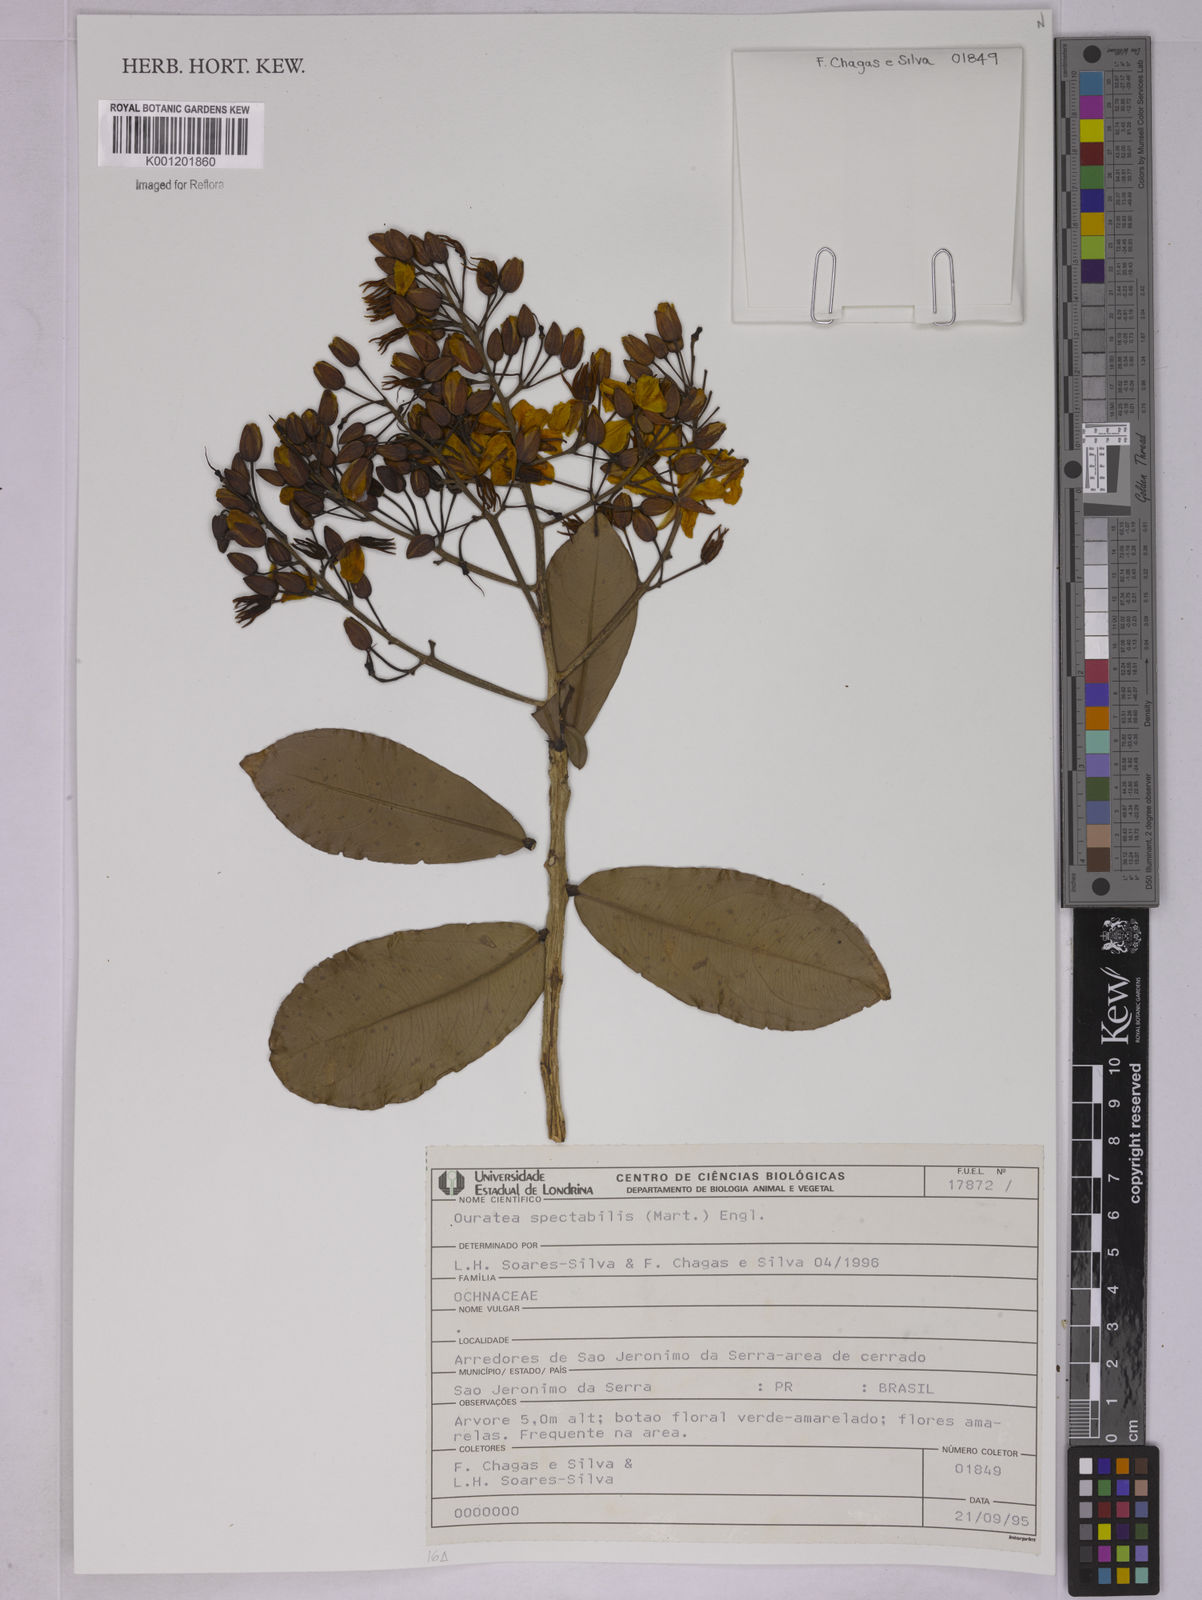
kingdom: Plantae
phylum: Tracheophyta
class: Magnoliopsida
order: Malpighiales
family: Ochnaceae
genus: Ouratea
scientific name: Ouratea spectabilis
